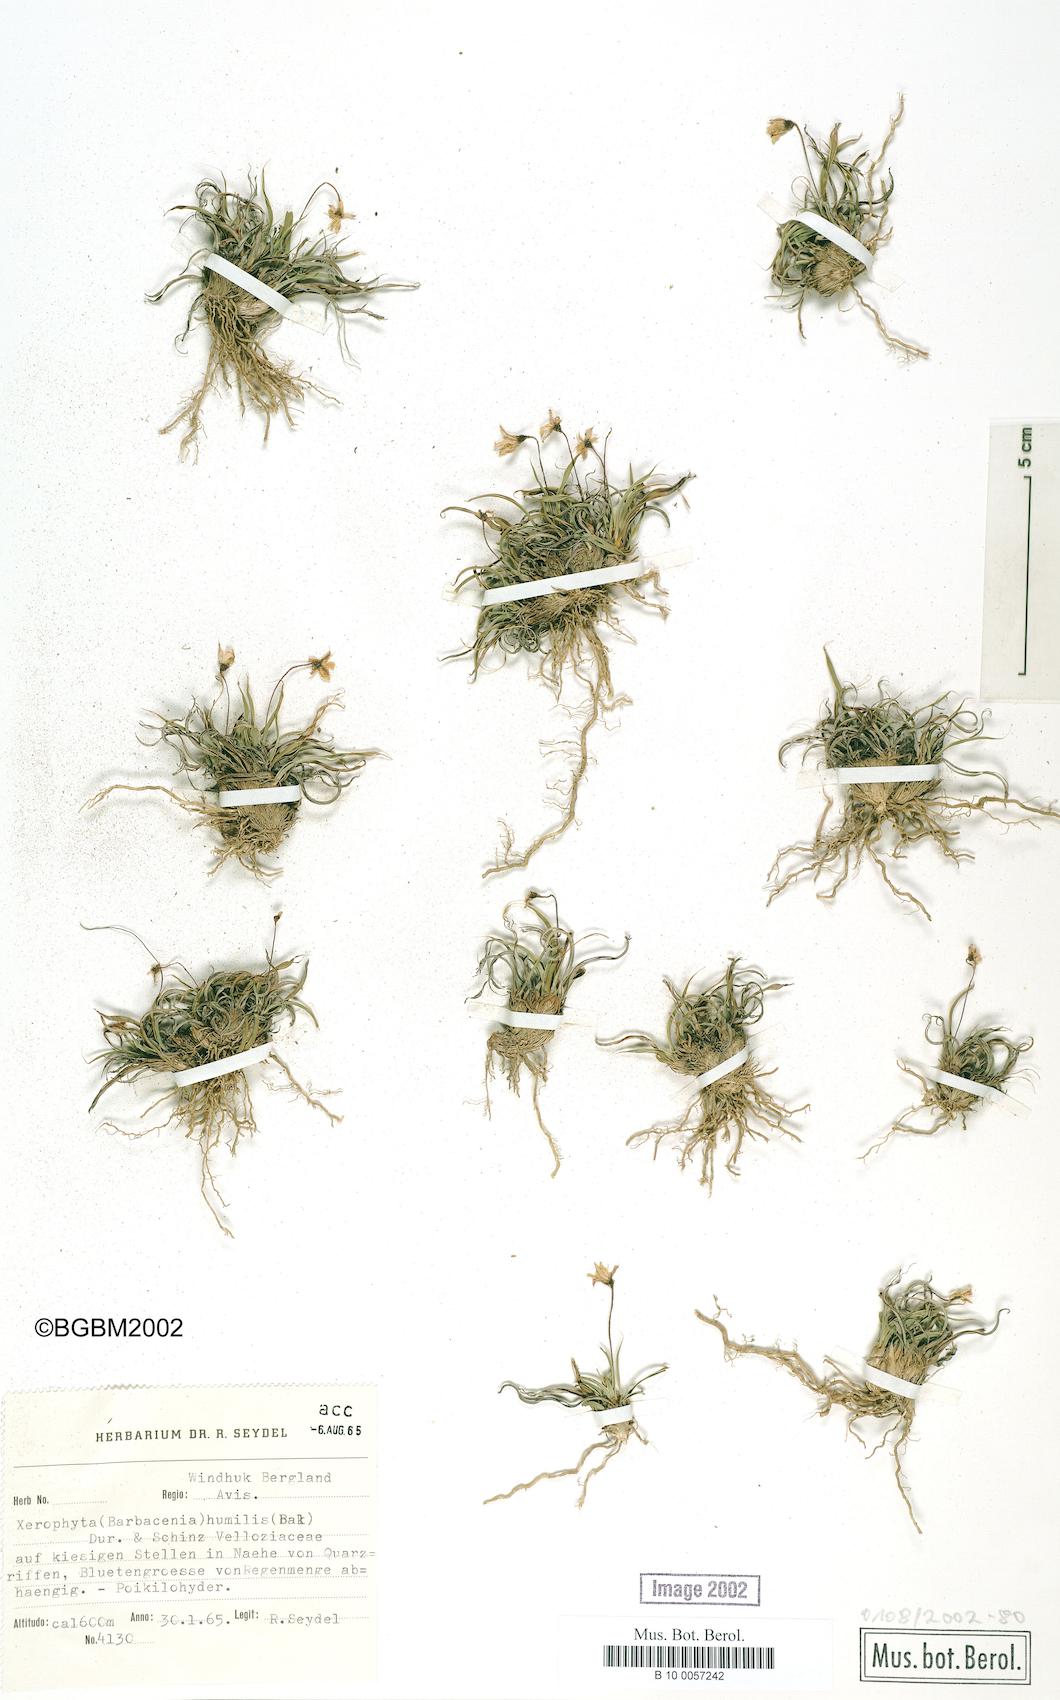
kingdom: Plantae
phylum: Tracheophyta
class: Liliopsida
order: Pandanales
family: Velloziaceae
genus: Xerophyta
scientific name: Xerophyta humilis
